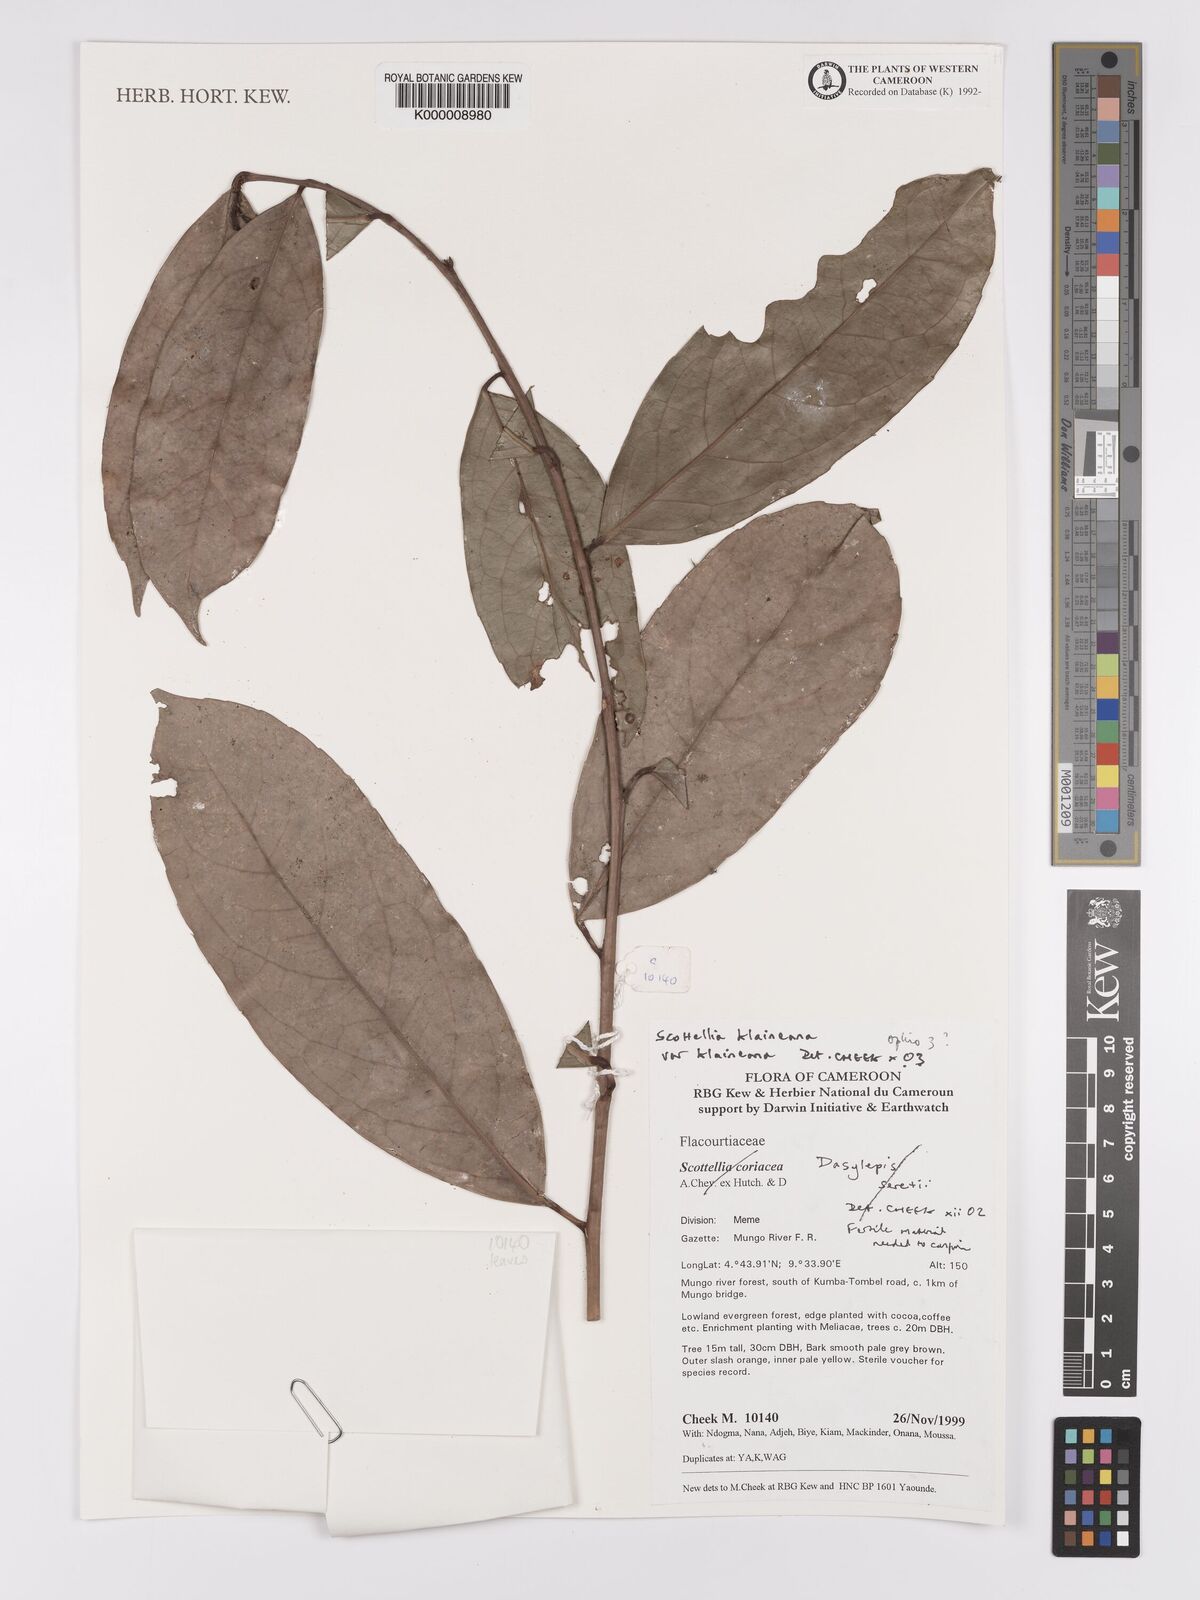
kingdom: Plantae
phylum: Tracheophyta
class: Magnoliopsida
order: Malpighiales
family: Achariaceae
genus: Scottellia
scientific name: Scottellia klaineana
